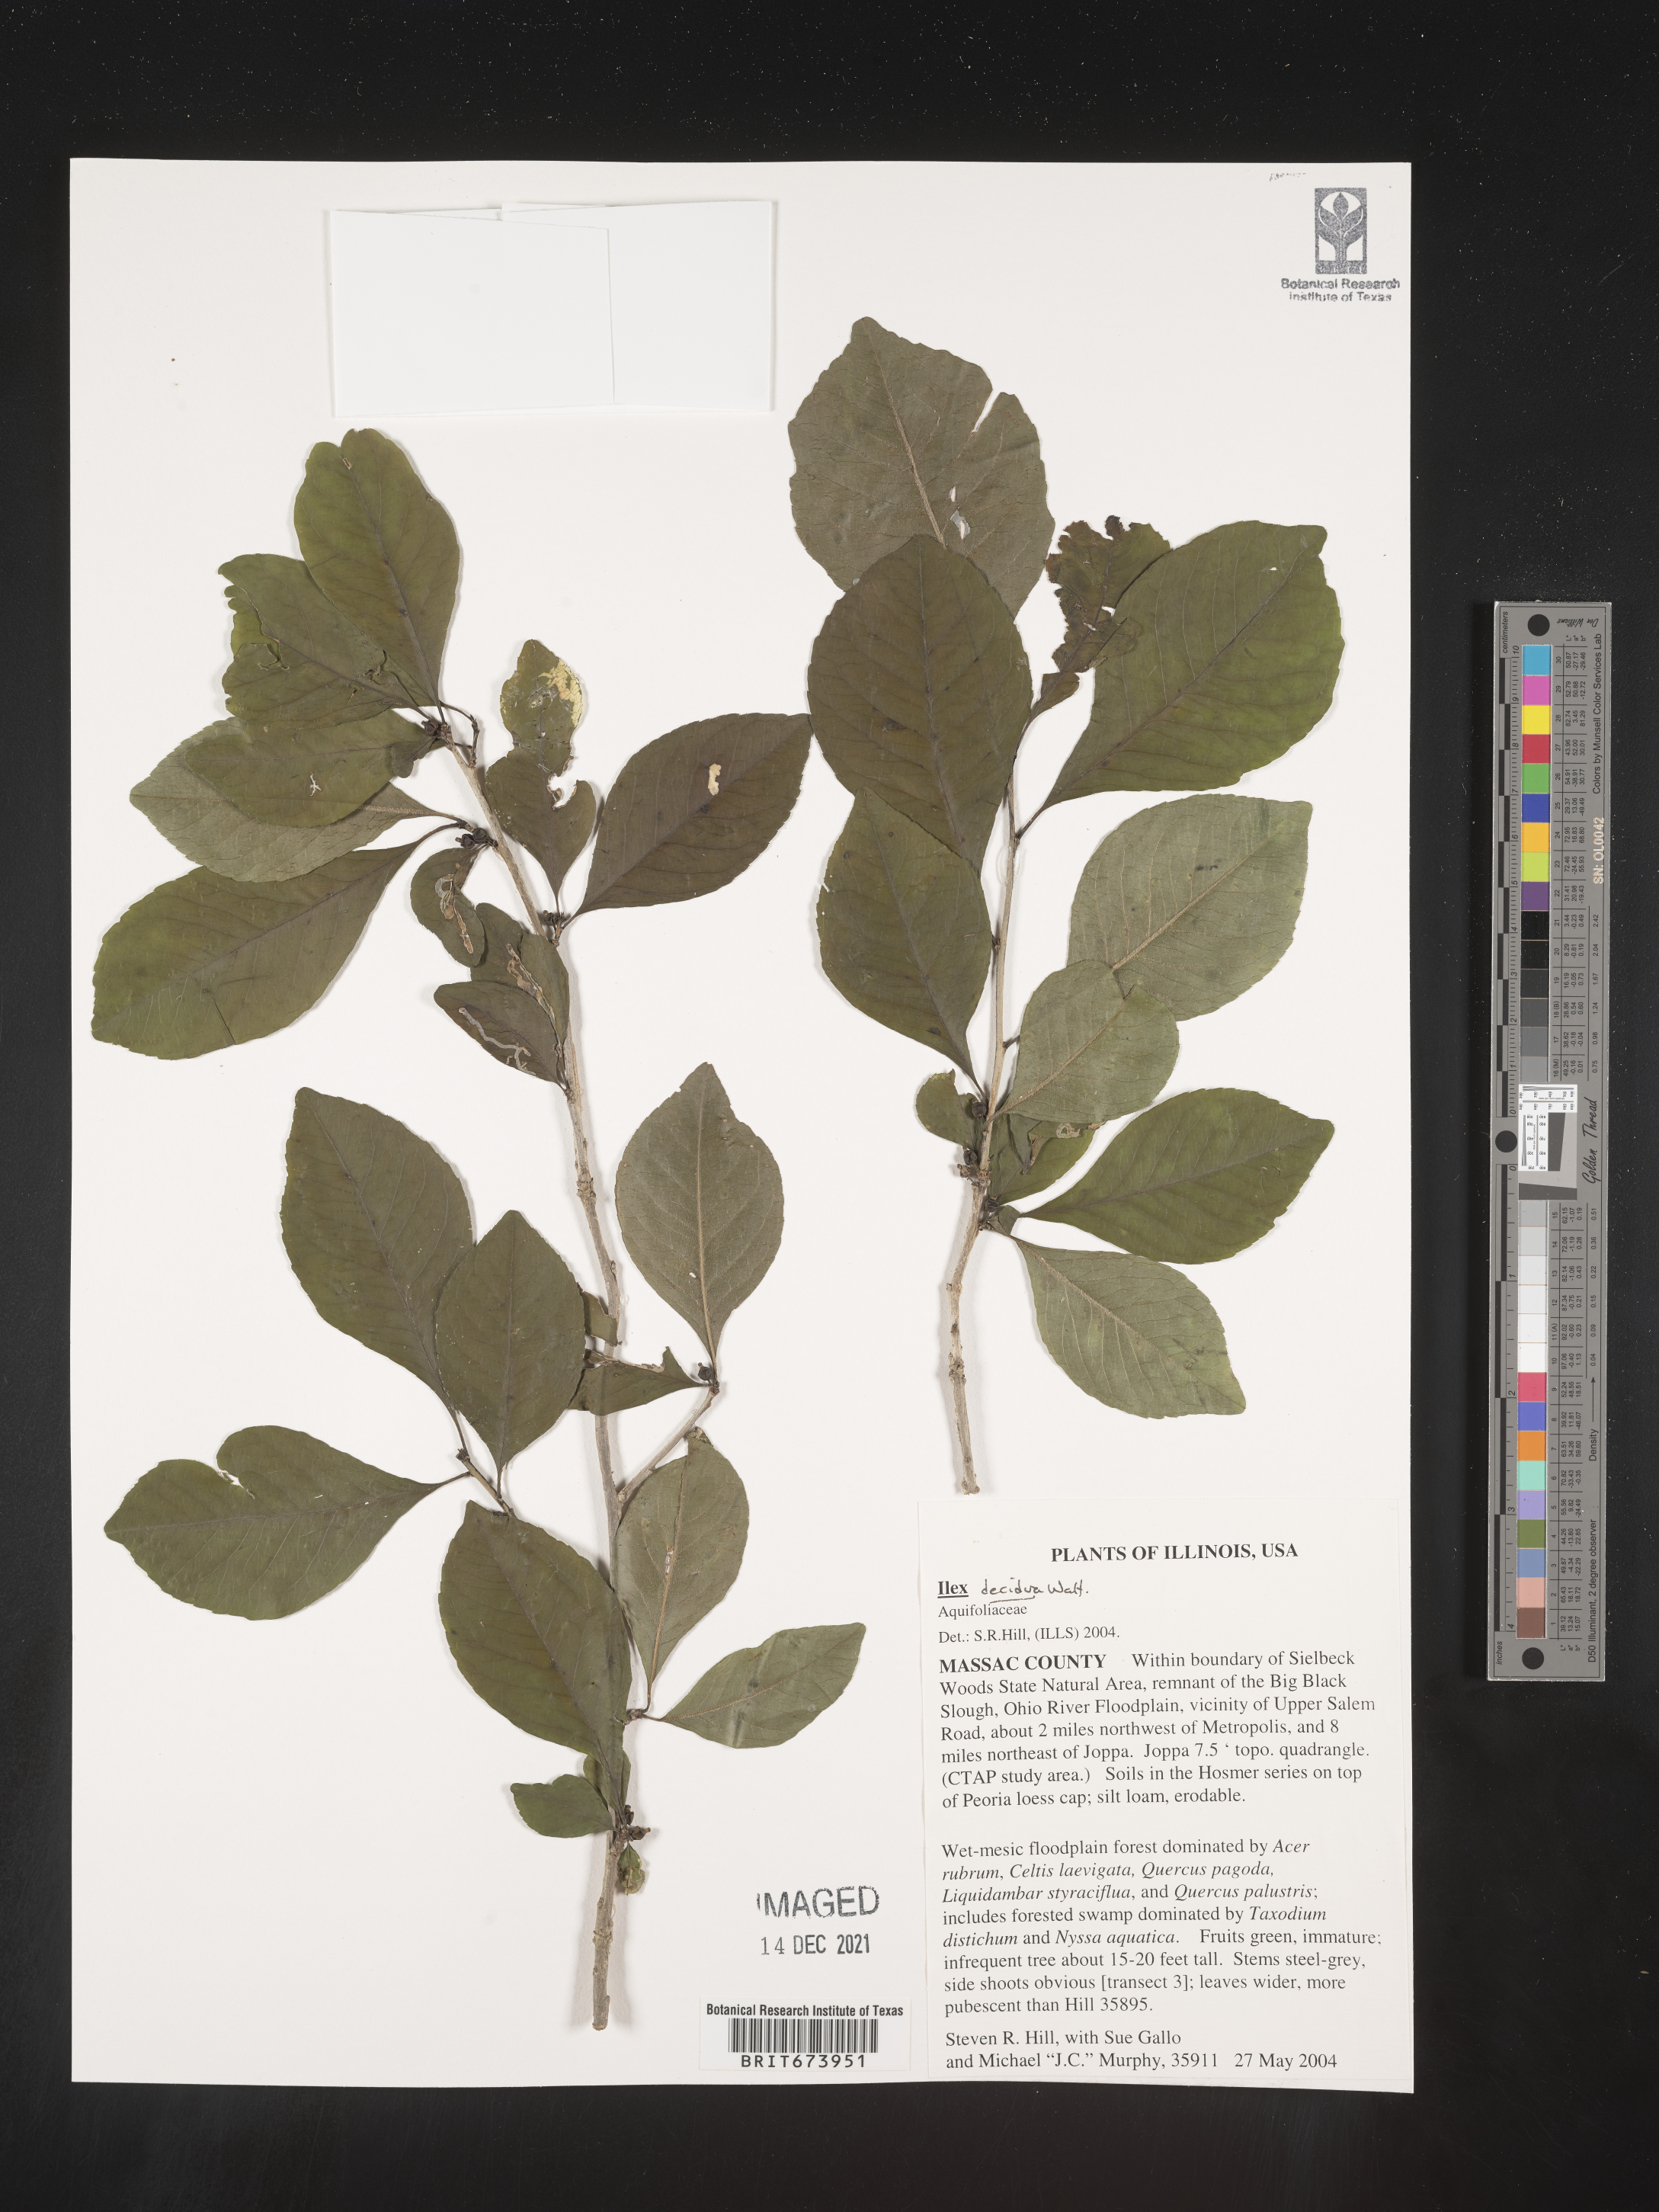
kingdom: Plantae
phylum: Tracheophyta
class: Magnoliopsida
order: Aquifoliales
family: Aquifoliaceae
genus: Ilex
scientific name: Ilex decidua
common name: Possum-haw
